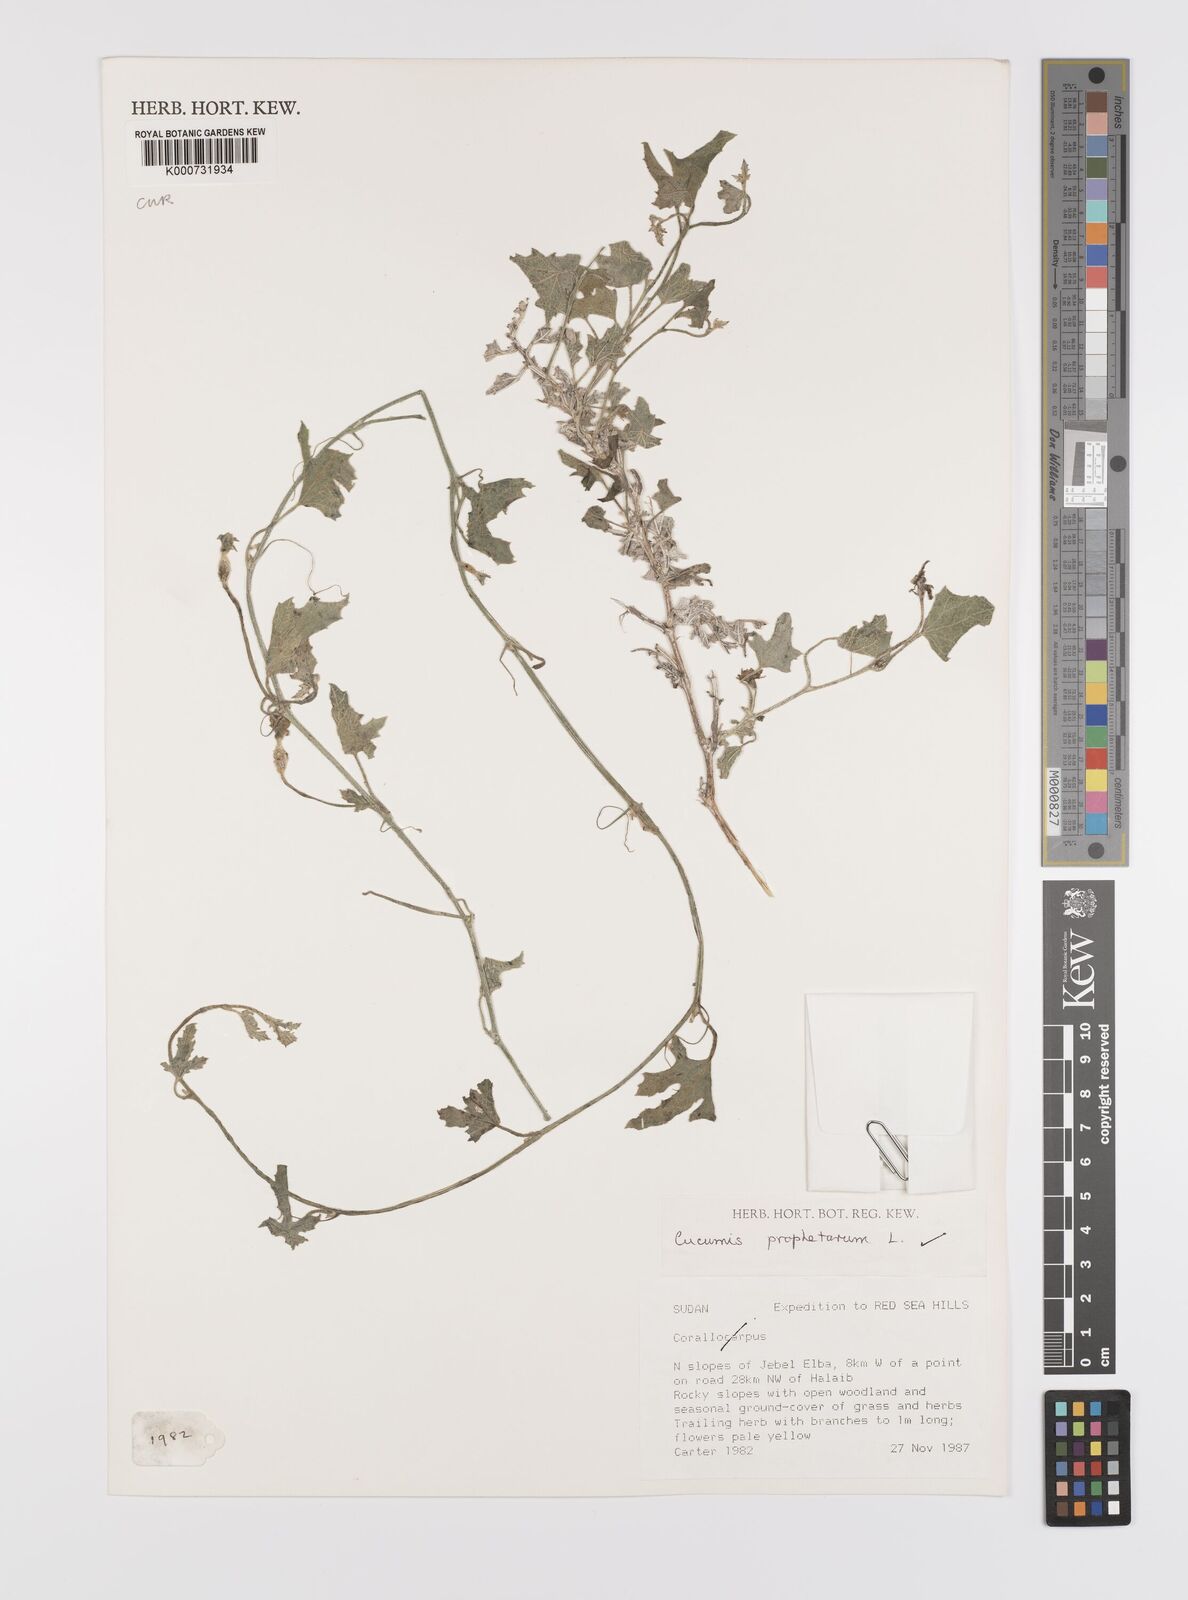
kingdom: Plantae
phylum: Tracheophyta
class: Magnoliopsida
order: Cucurbitales
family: Cucurbitaceae
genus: Cucumis
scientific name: Cucumis prophetarum
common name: Wild cucumber
